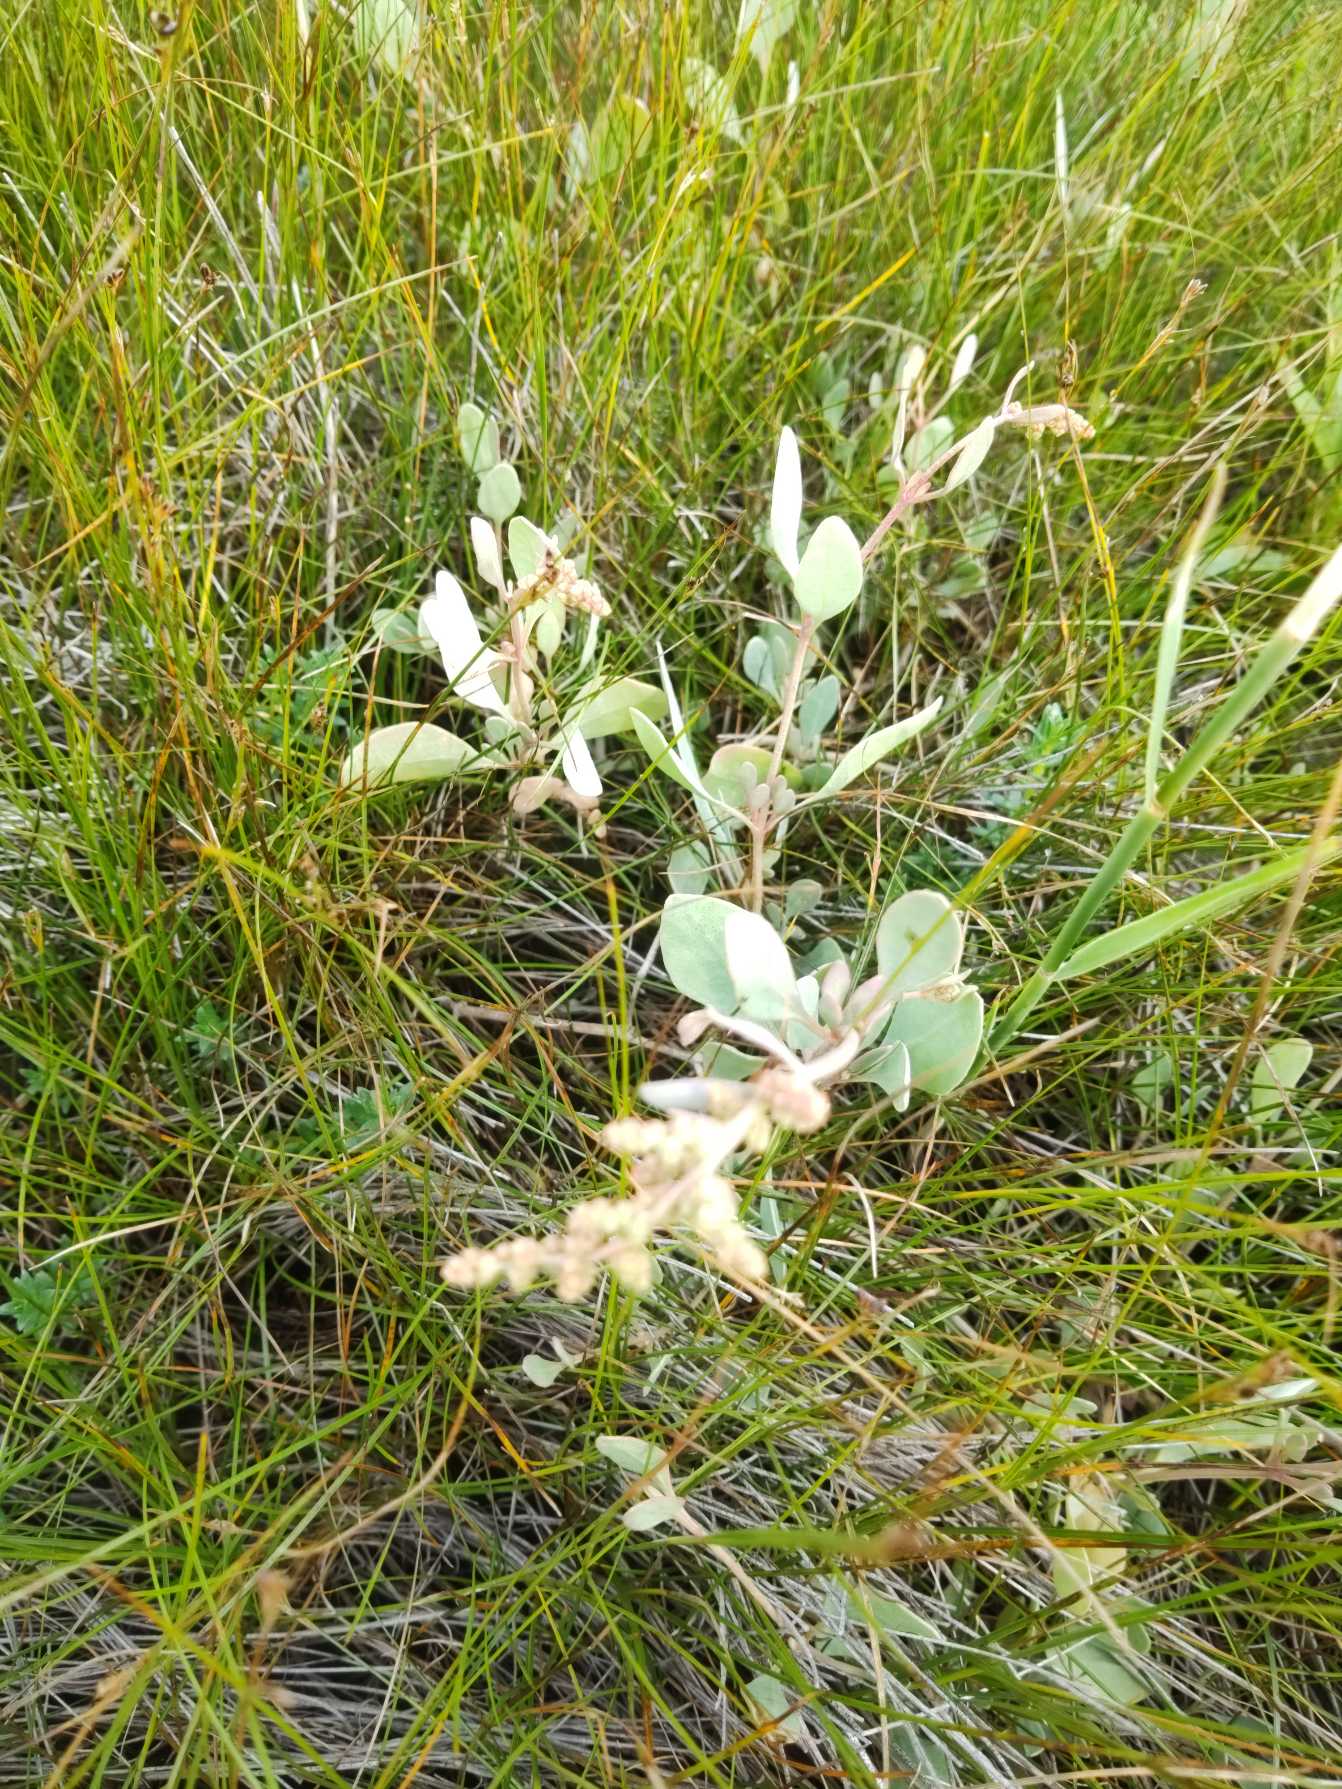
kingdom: Plantae
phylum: Tracheophyta
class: Magnoliopsida
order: Caryophyllales
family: Amaranthaceae
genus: Halimione
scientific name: Halimione portulacoides
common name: Stilkløs kilebæger
